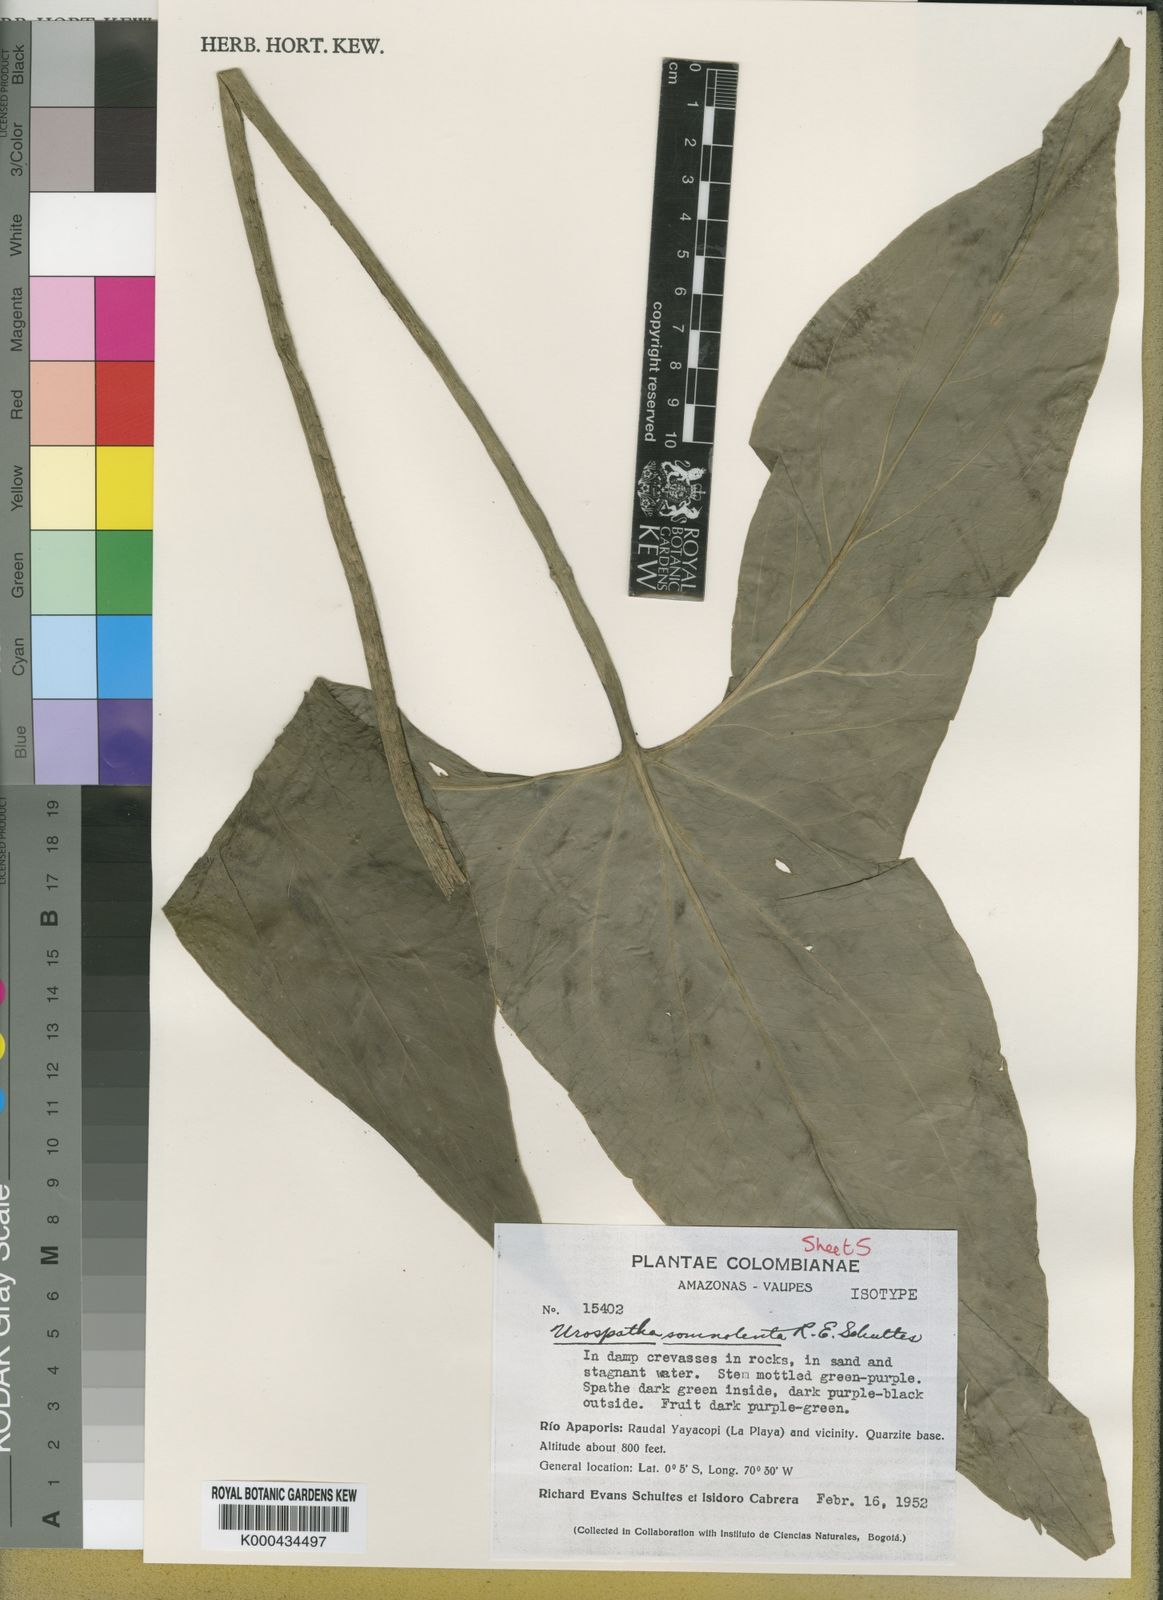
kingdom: Plantae
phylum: Tracheophyta
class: Liliopsida
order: Alismatales
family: Araceae
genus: Urospatha
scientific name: Urospatha somnolenta
